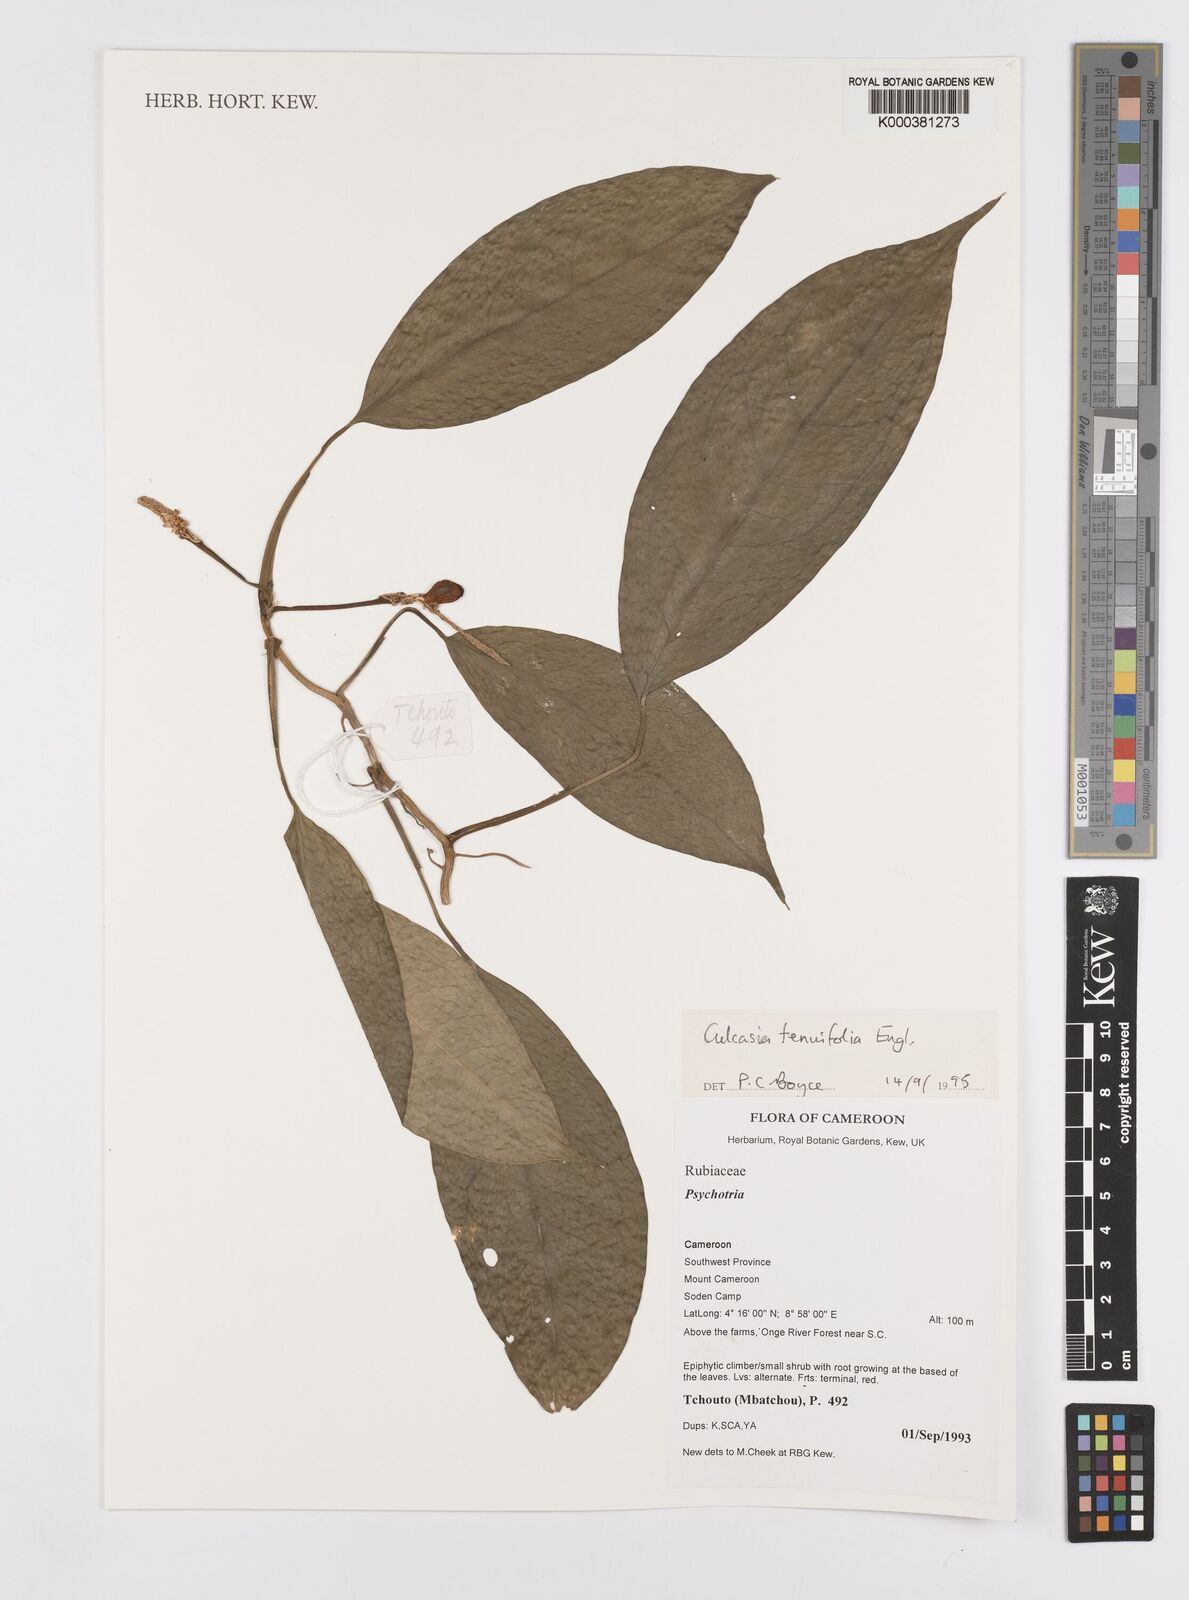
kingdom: Plantae
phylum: Tracheophyta
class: Liliopsida
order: Alismatales
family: Araceae
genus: Culcasia
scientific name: Culcasia tenuifolia
